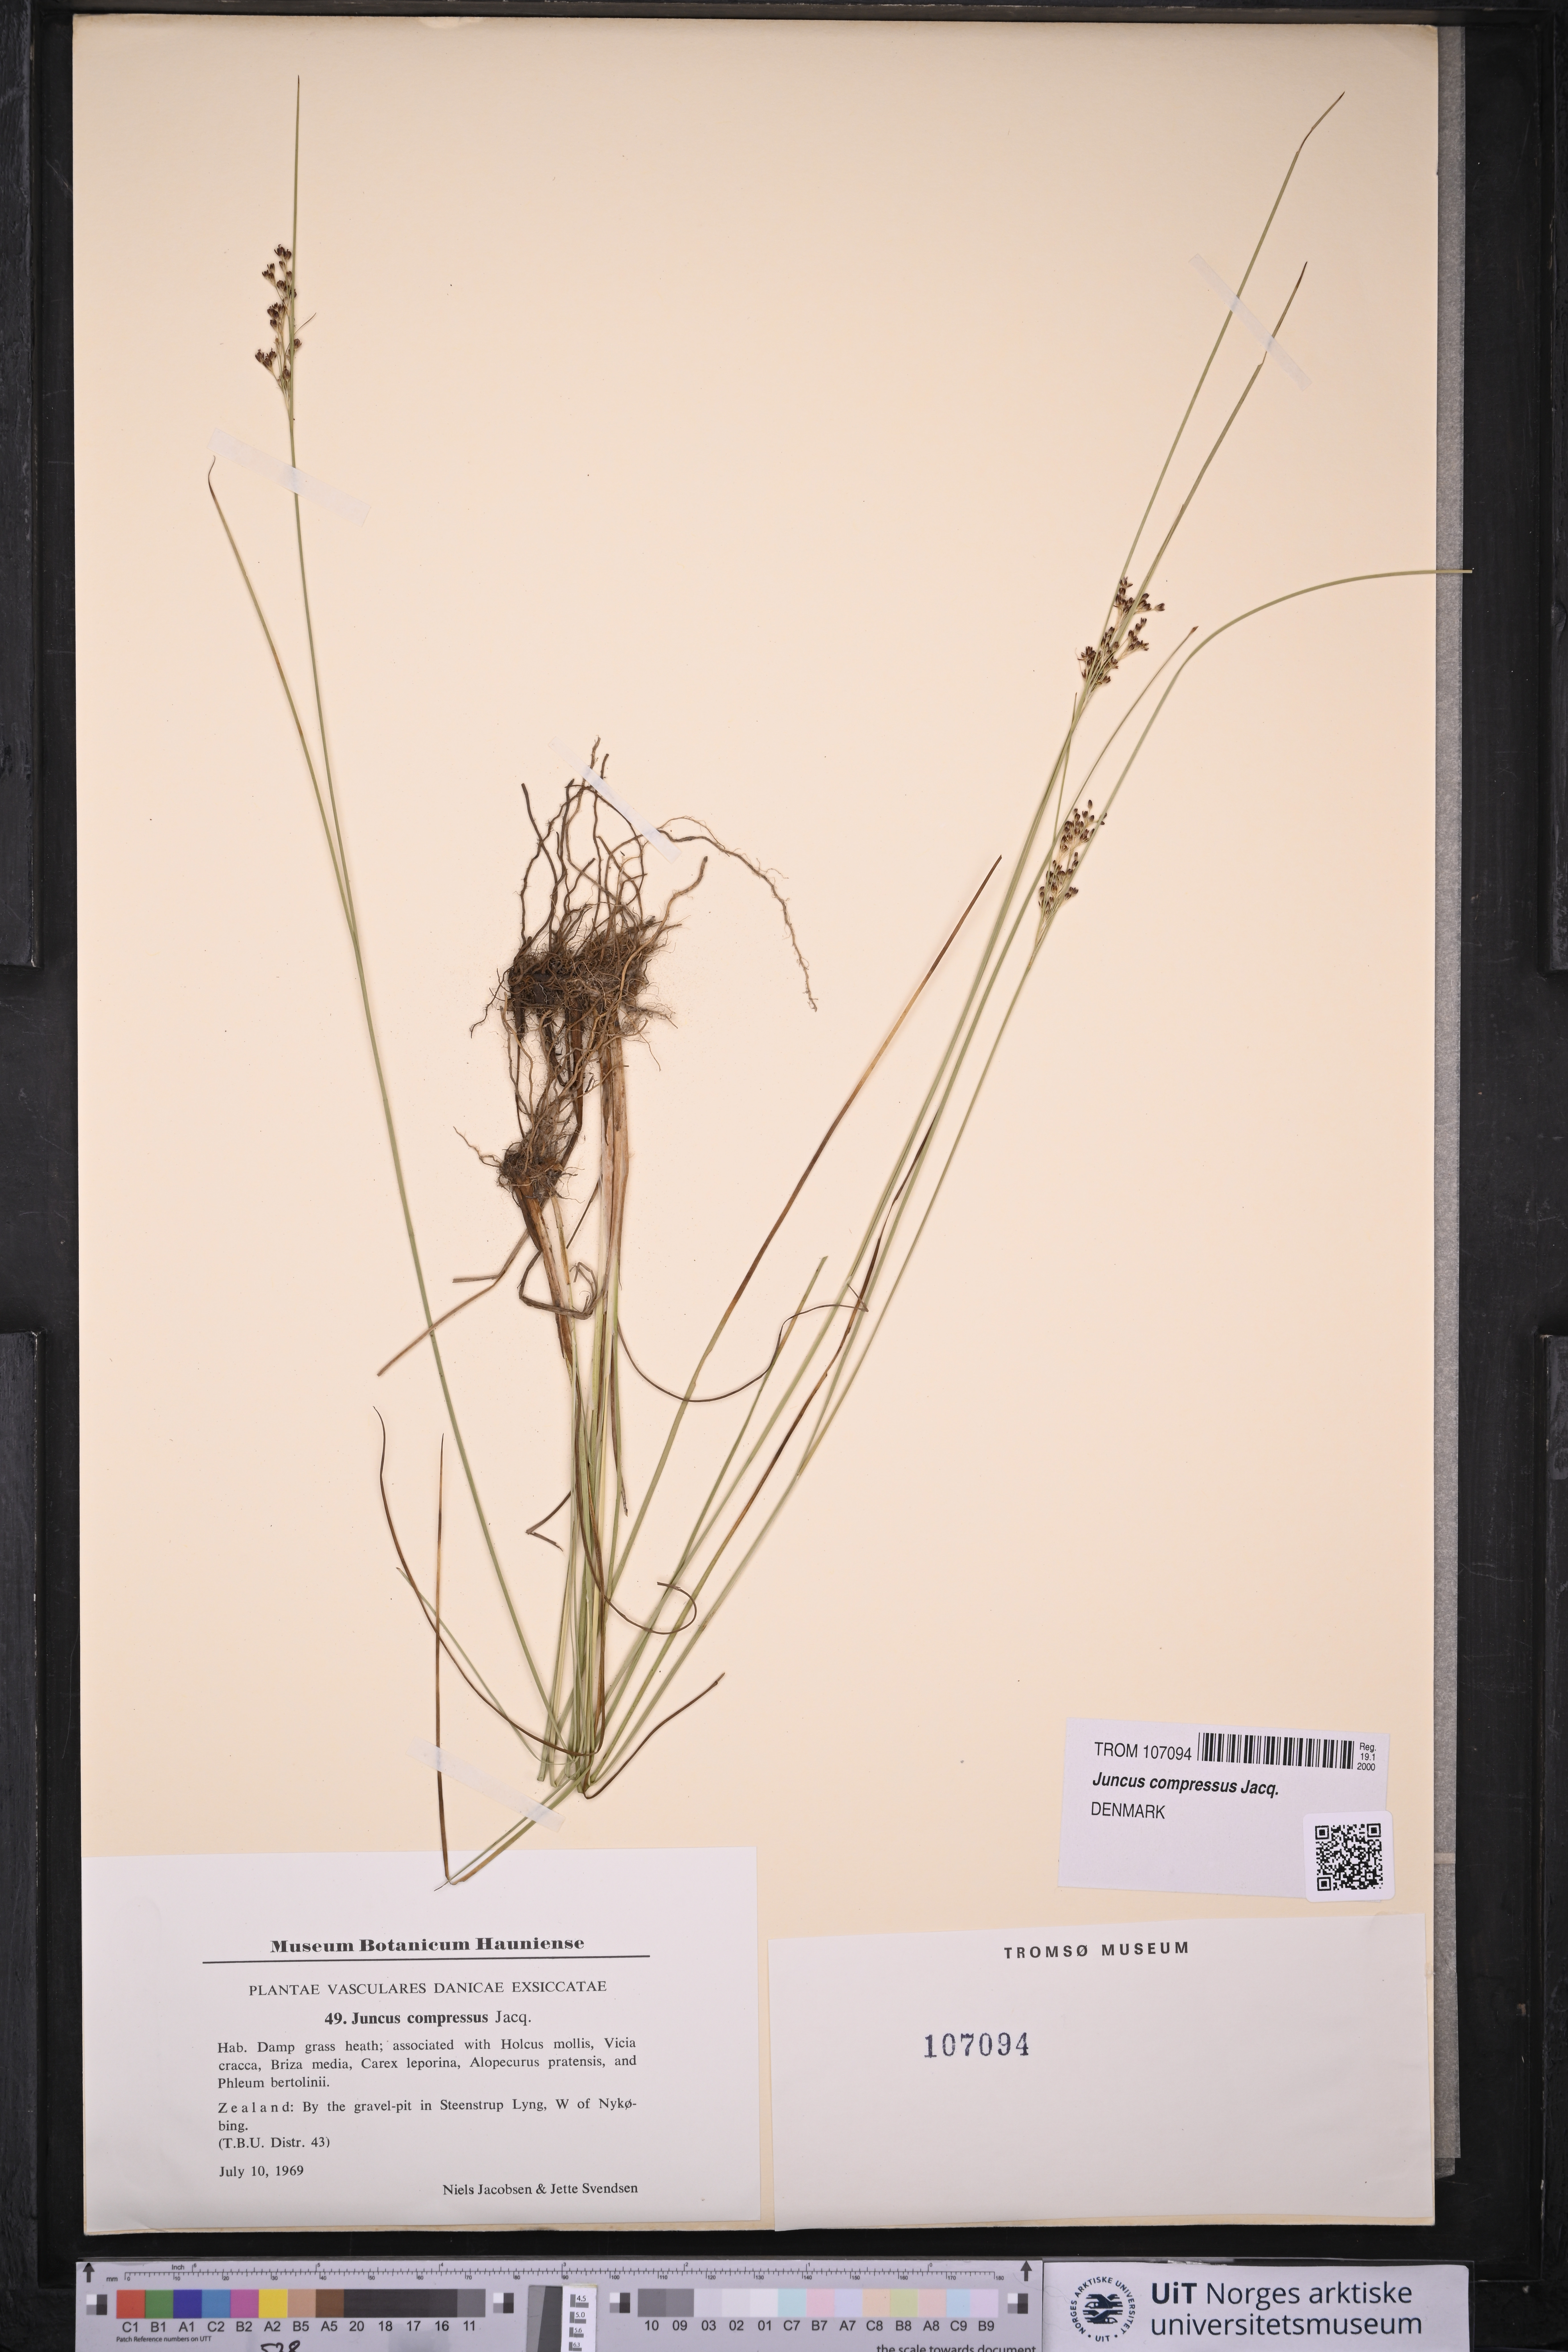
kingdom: Plantae
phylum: Tracheophyta
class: Liliopsida
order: Poales
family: Juncaceae
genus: Juncus
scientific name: Juncus compressus
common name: Round-fruited rush
